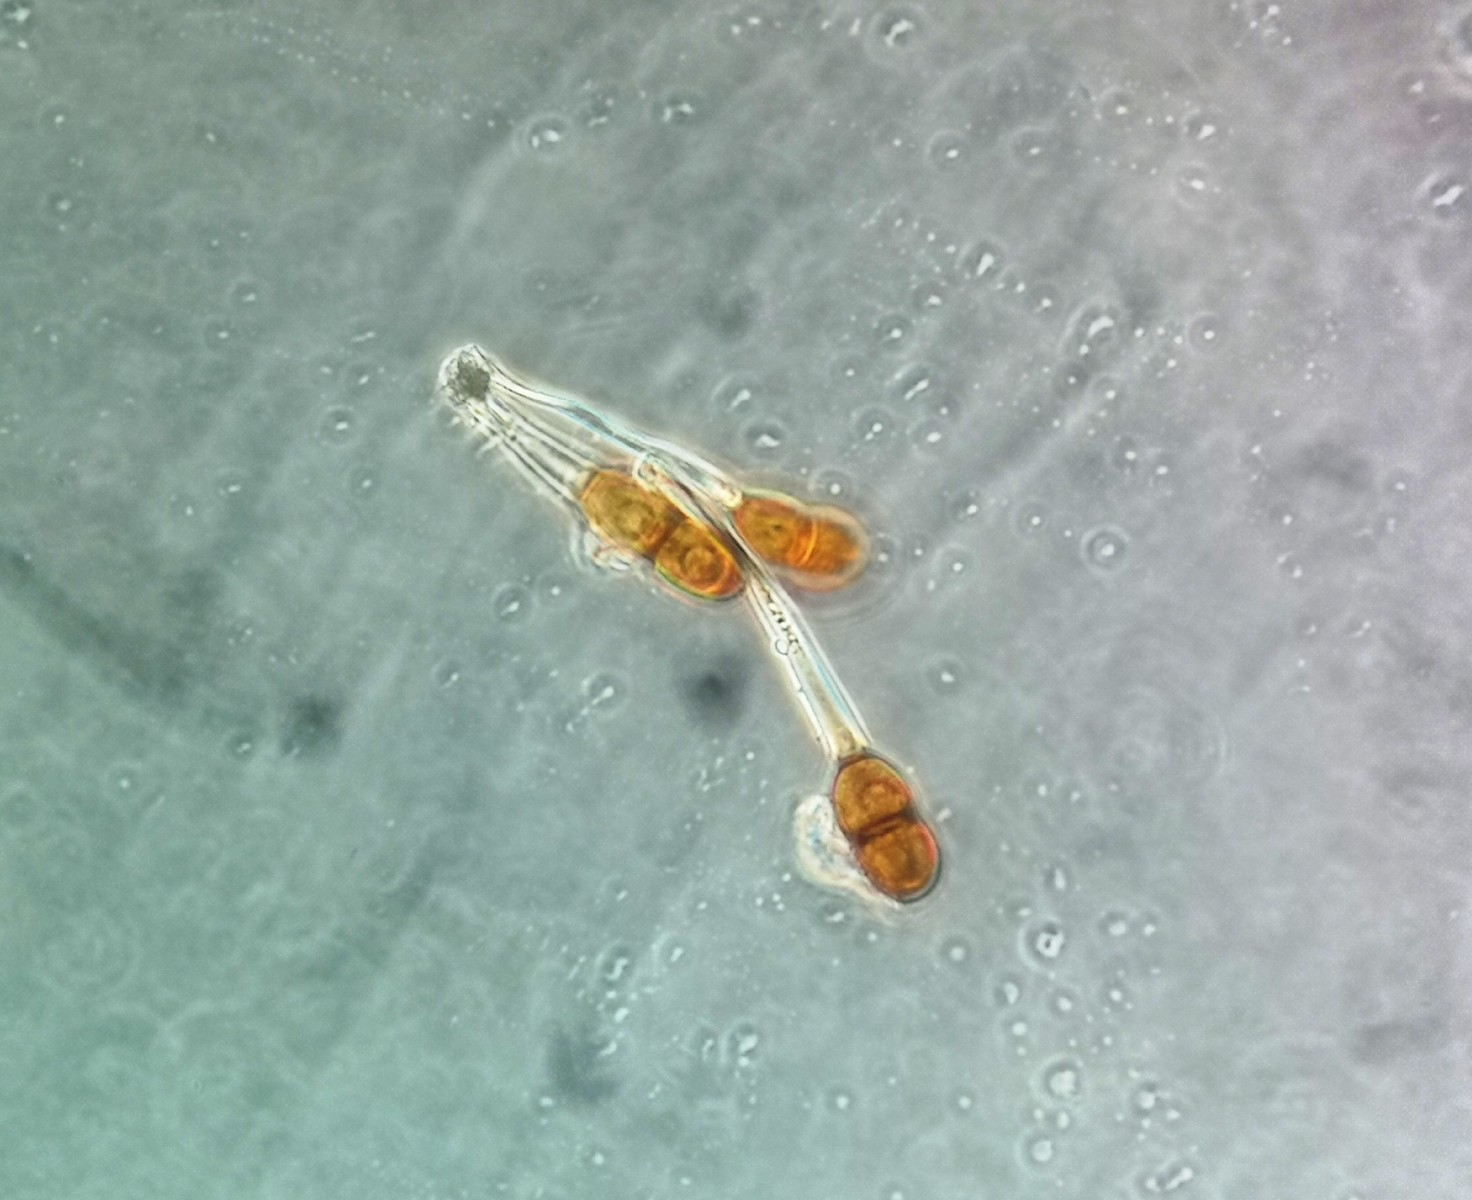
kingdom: Fungi
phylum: Basidiomycota
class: Pucciniomycetes
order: Pucciniales
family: Pucciniaceae
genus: Puccinia
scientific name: Puccinia tanaceti
